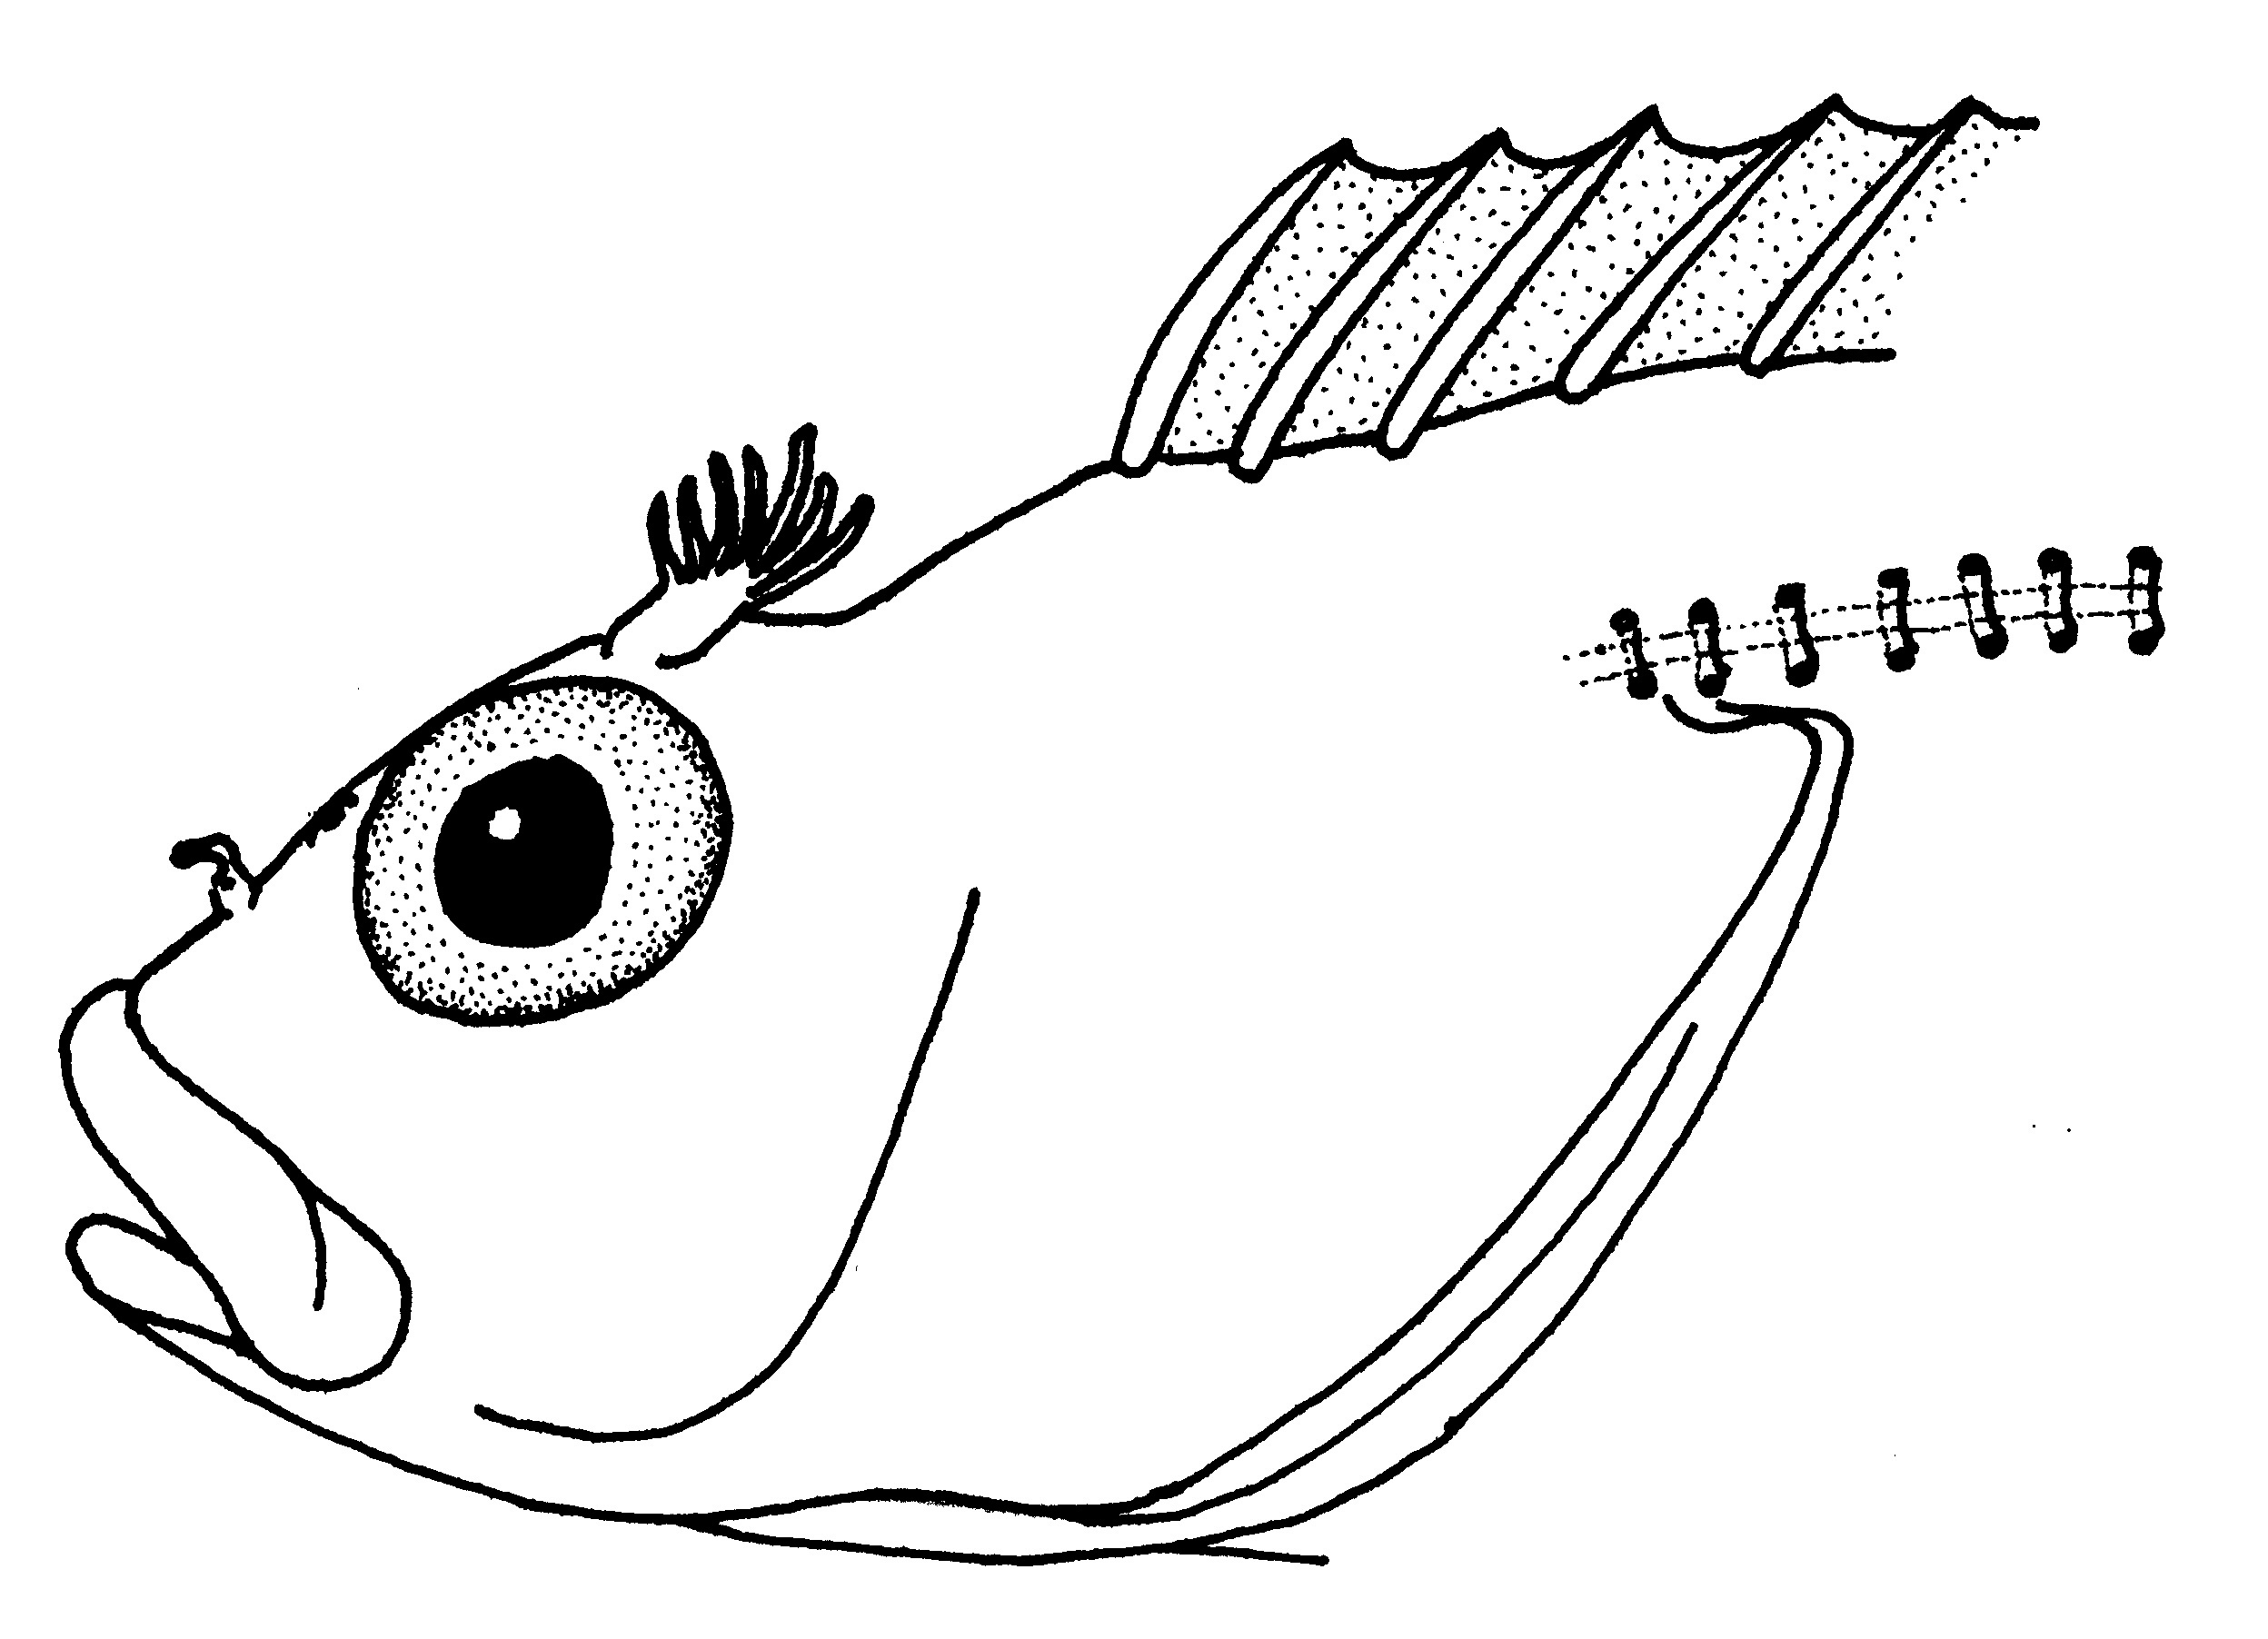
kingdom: Animalia
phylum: Chordata
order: Perciformes
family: Clinidae
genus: Clinus
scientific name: Clinus helenae
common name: Helen's klipfish
